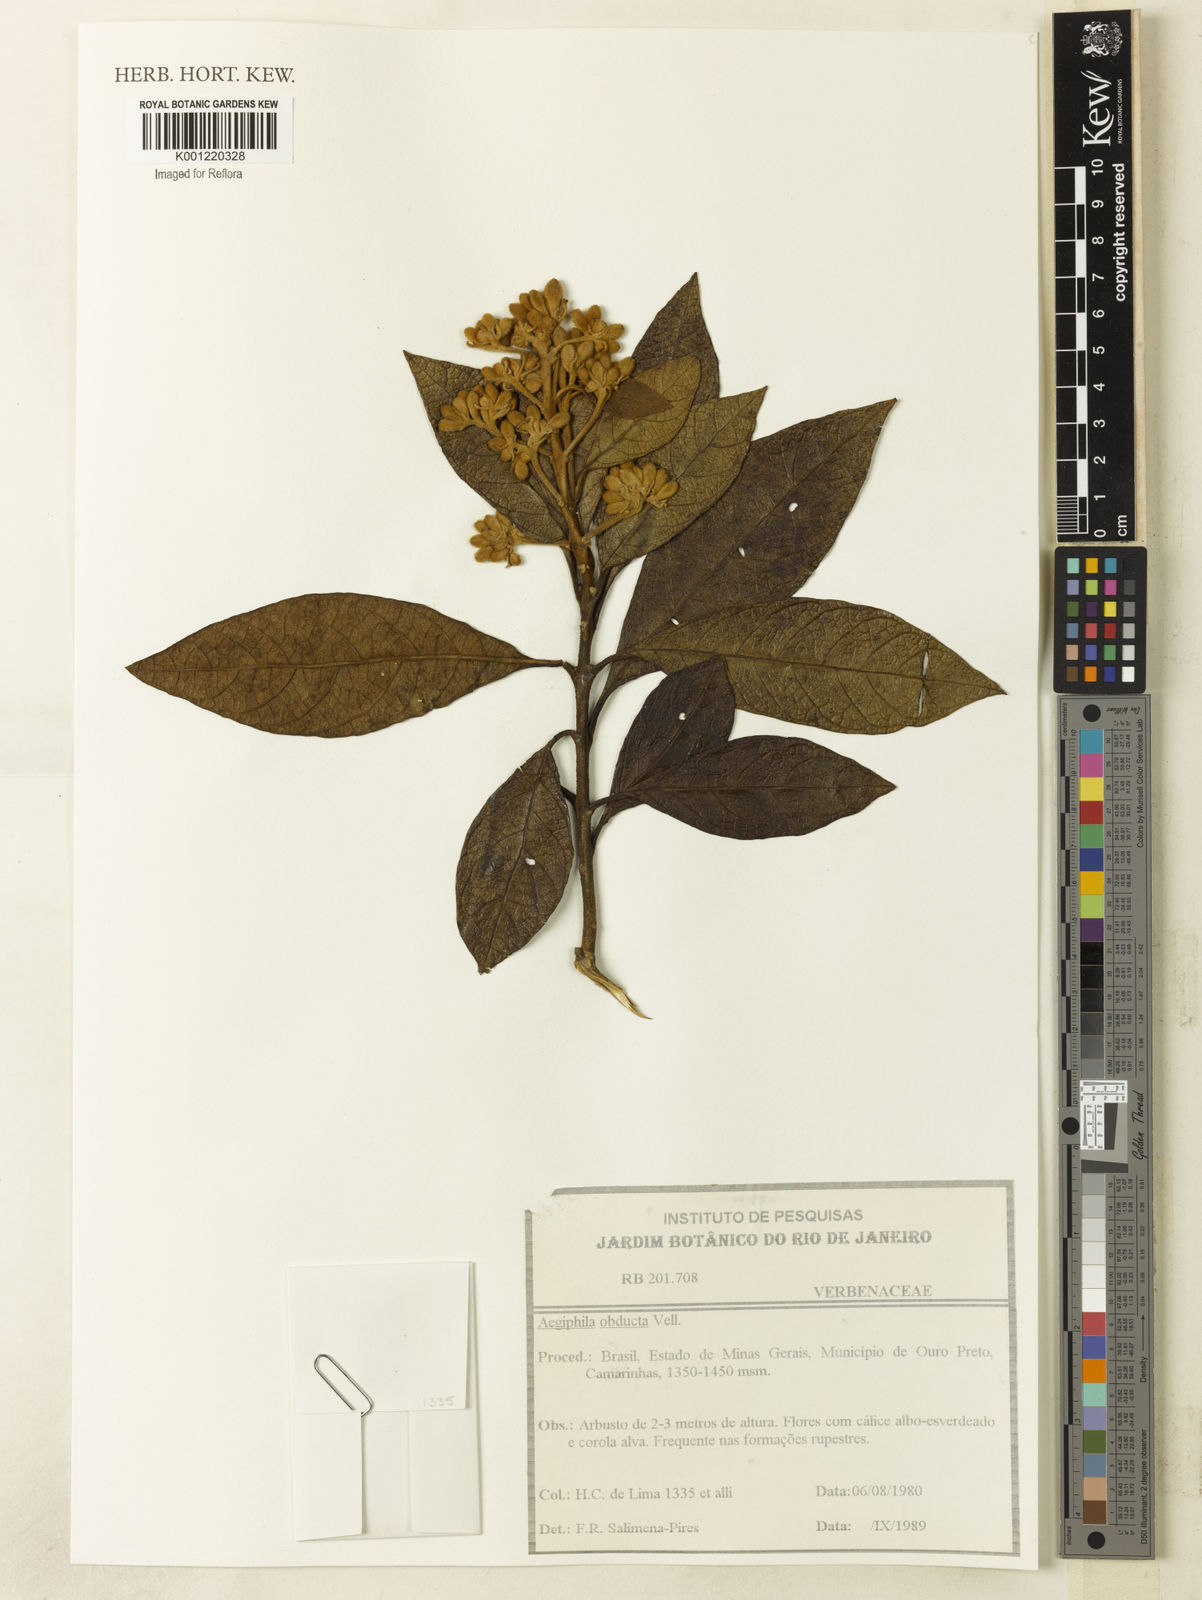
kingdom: Plantae
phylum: Tracheophyta
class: Magnoliopsida
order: Lamiales
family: Lamiaceae
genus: Aegiphila
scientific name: Aegiphila obducta
